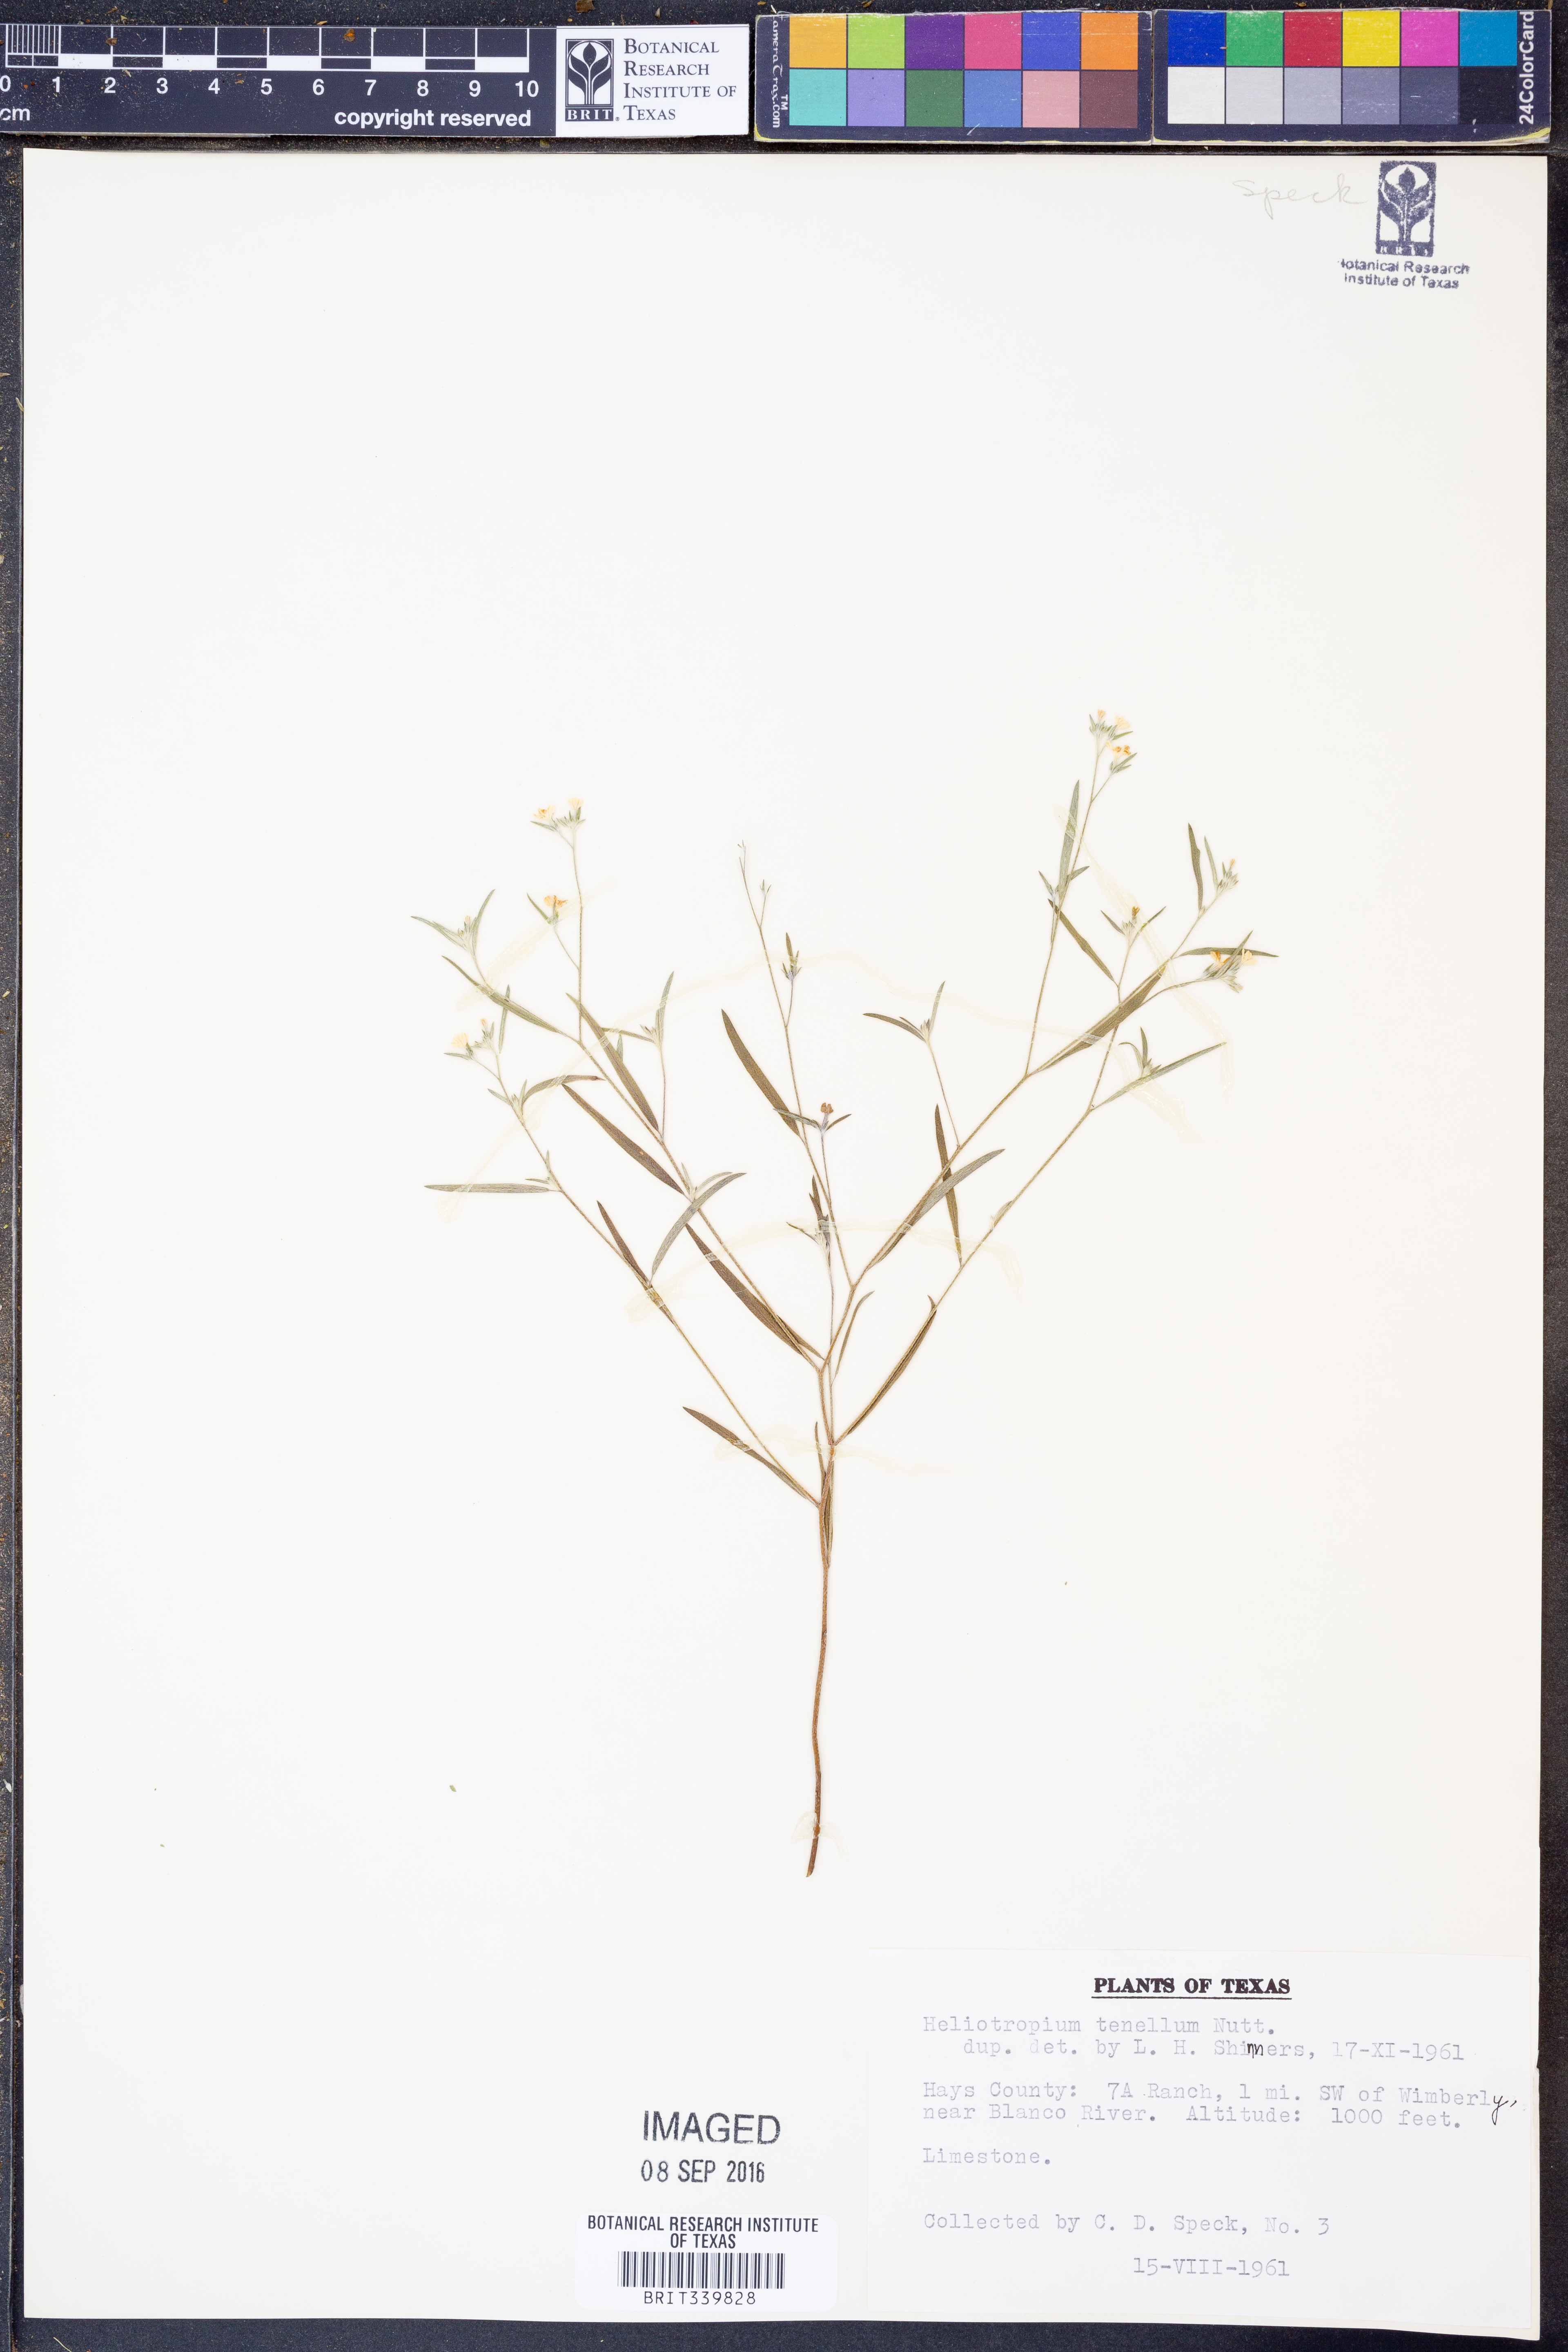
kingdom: Plantae
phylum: Tracheophyta
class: Magnoliopsida
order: Boraginales
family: Heliotropiaceae
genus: Euploca
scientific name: Euploca tenella
